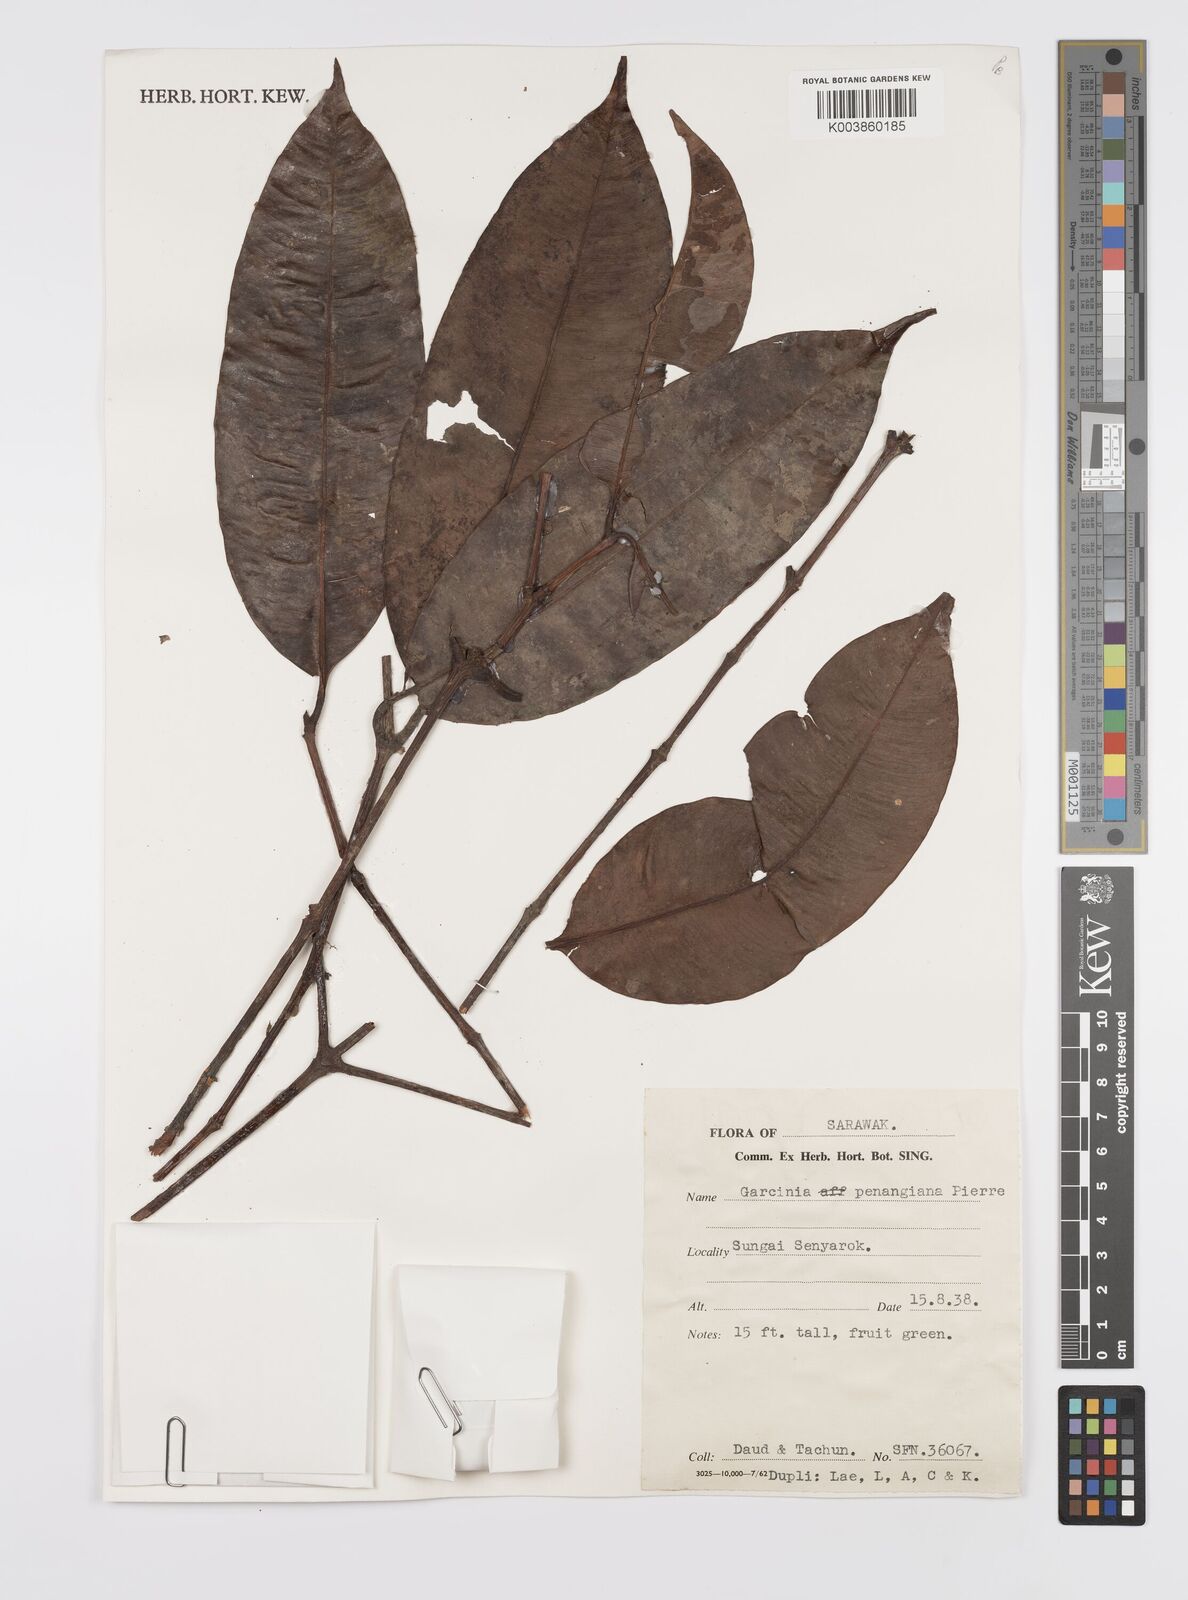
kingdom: Plantae
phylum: Tracheophyta
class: Magnoliopsida
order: Malpighiales
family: Clusiaceae
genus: Garcinia
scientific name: Garcinia penangiana
